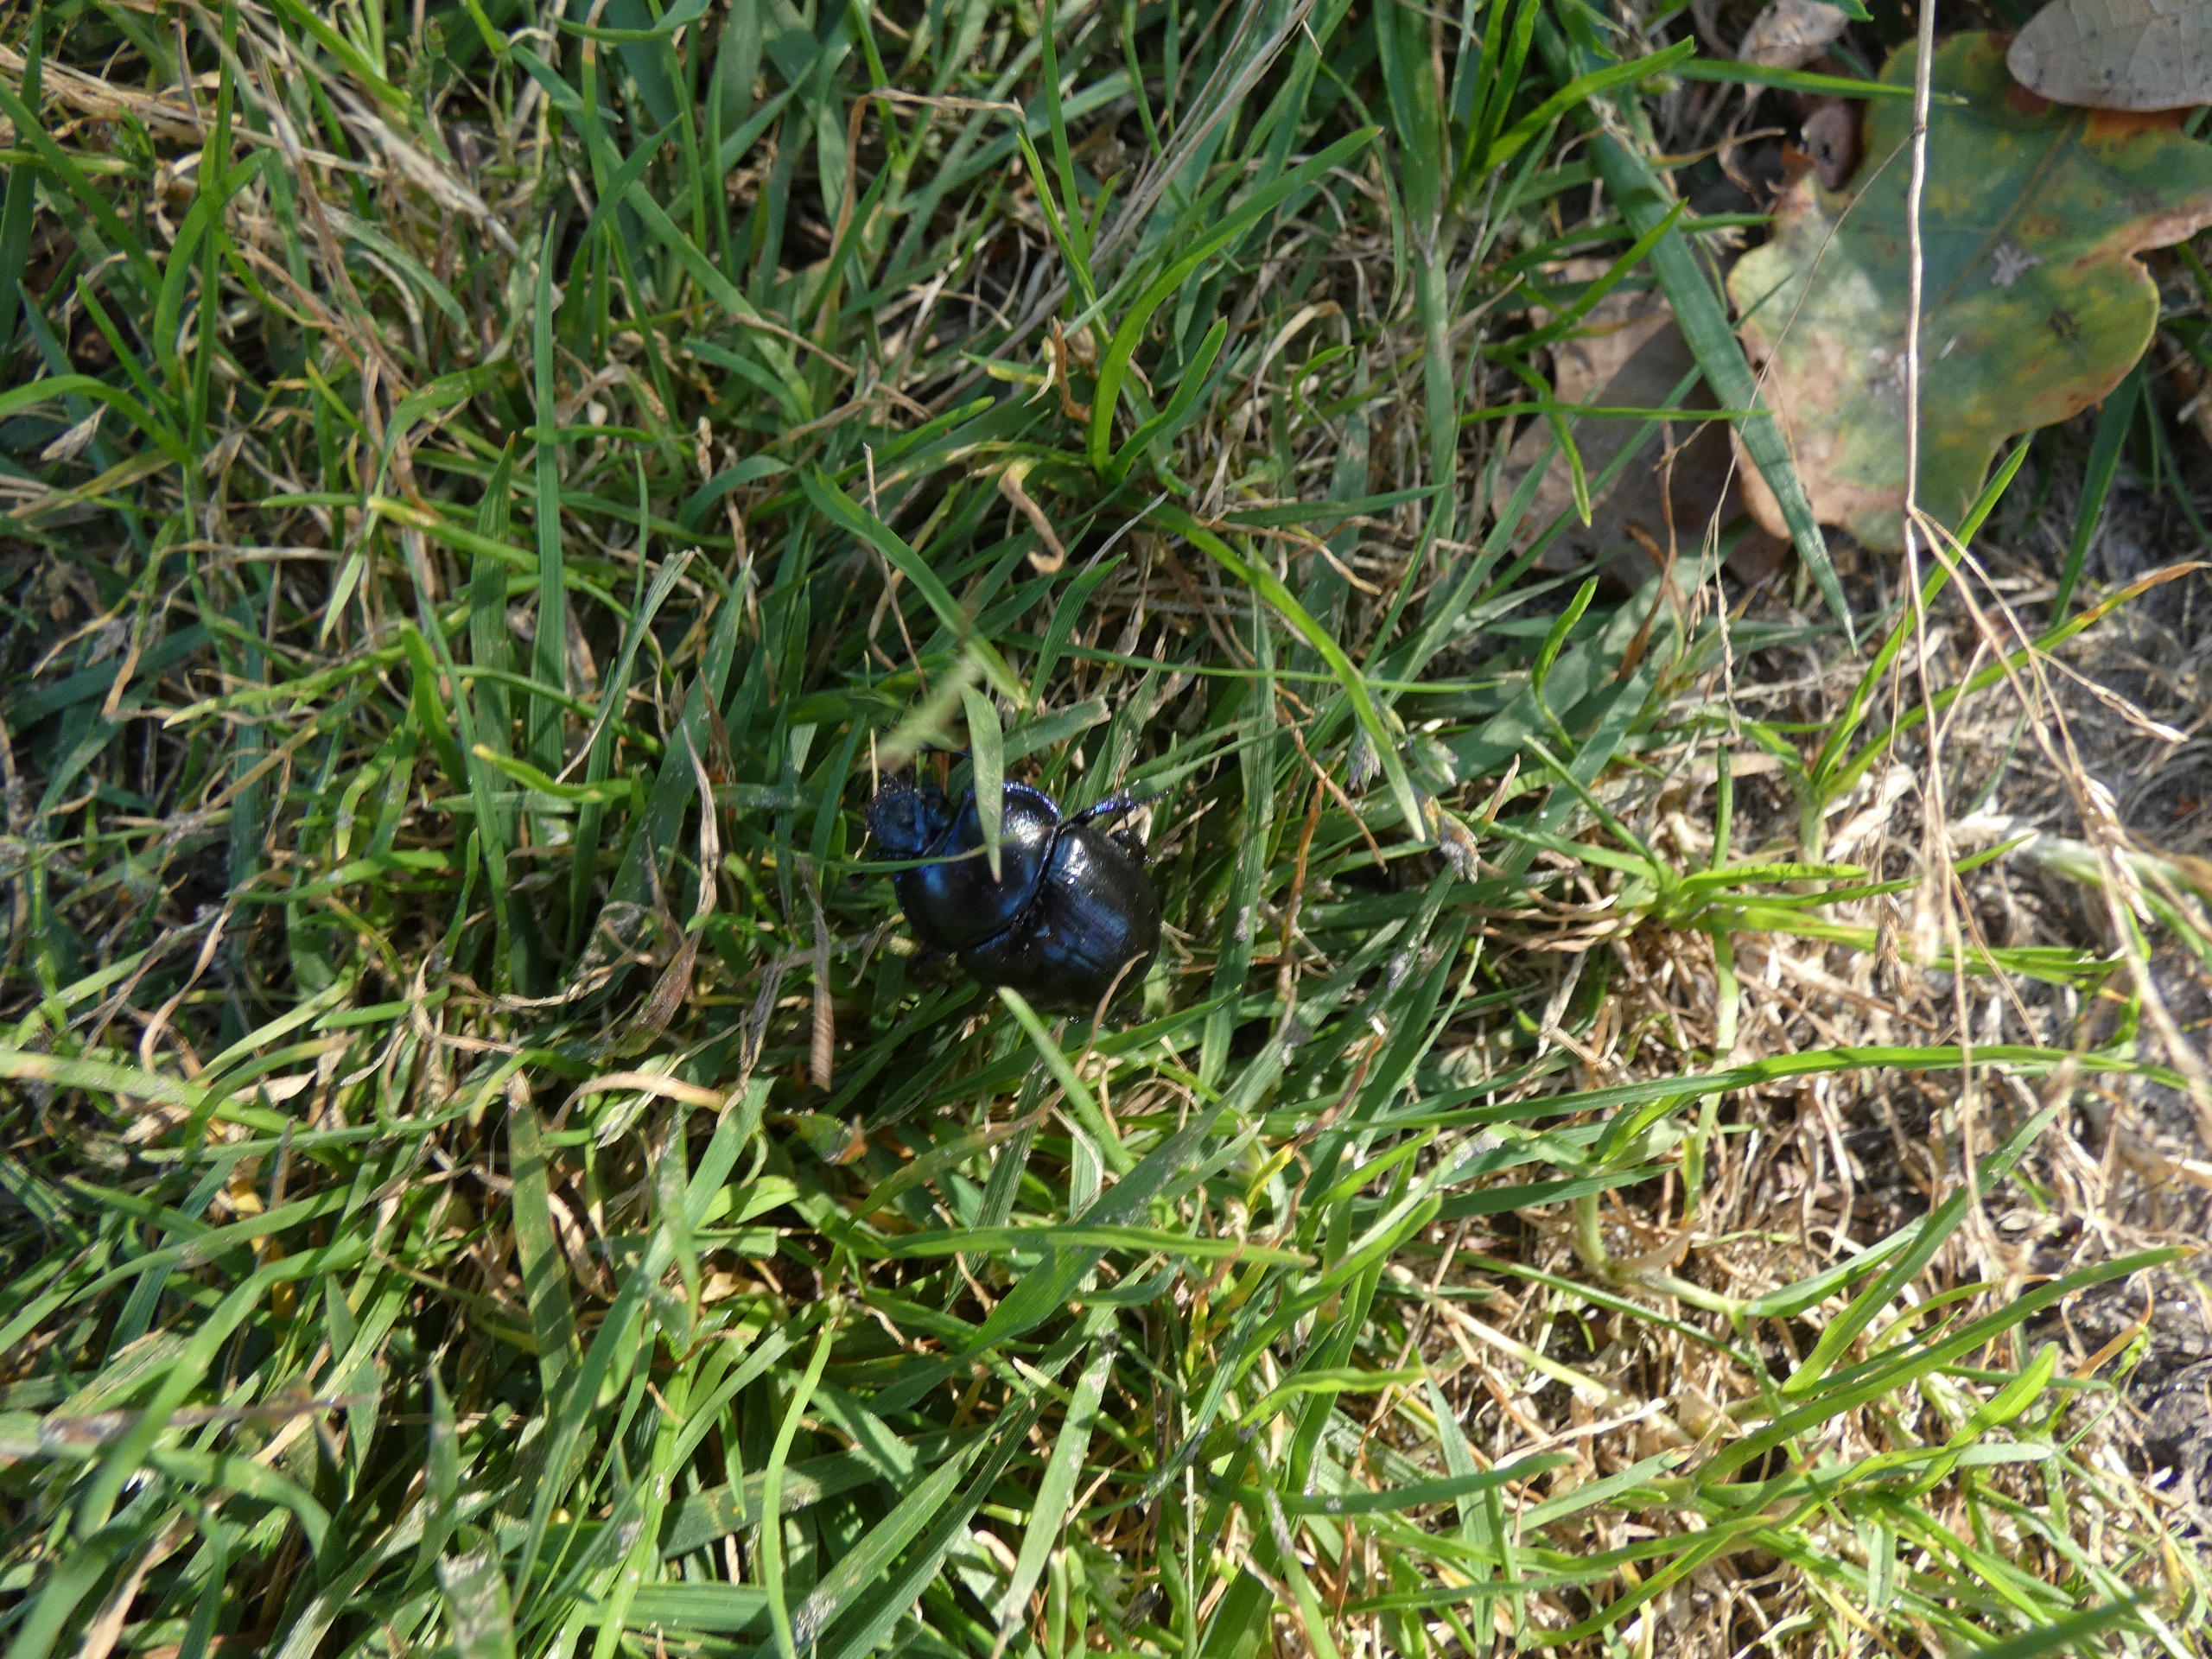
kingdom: Animalia
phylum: Arthropoda
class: Insecta
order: Coleoptera
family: Geotrupidae
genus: Anoplotrupes
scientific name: Anoplotrupes stercorosus
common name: Skovskarnbasse
